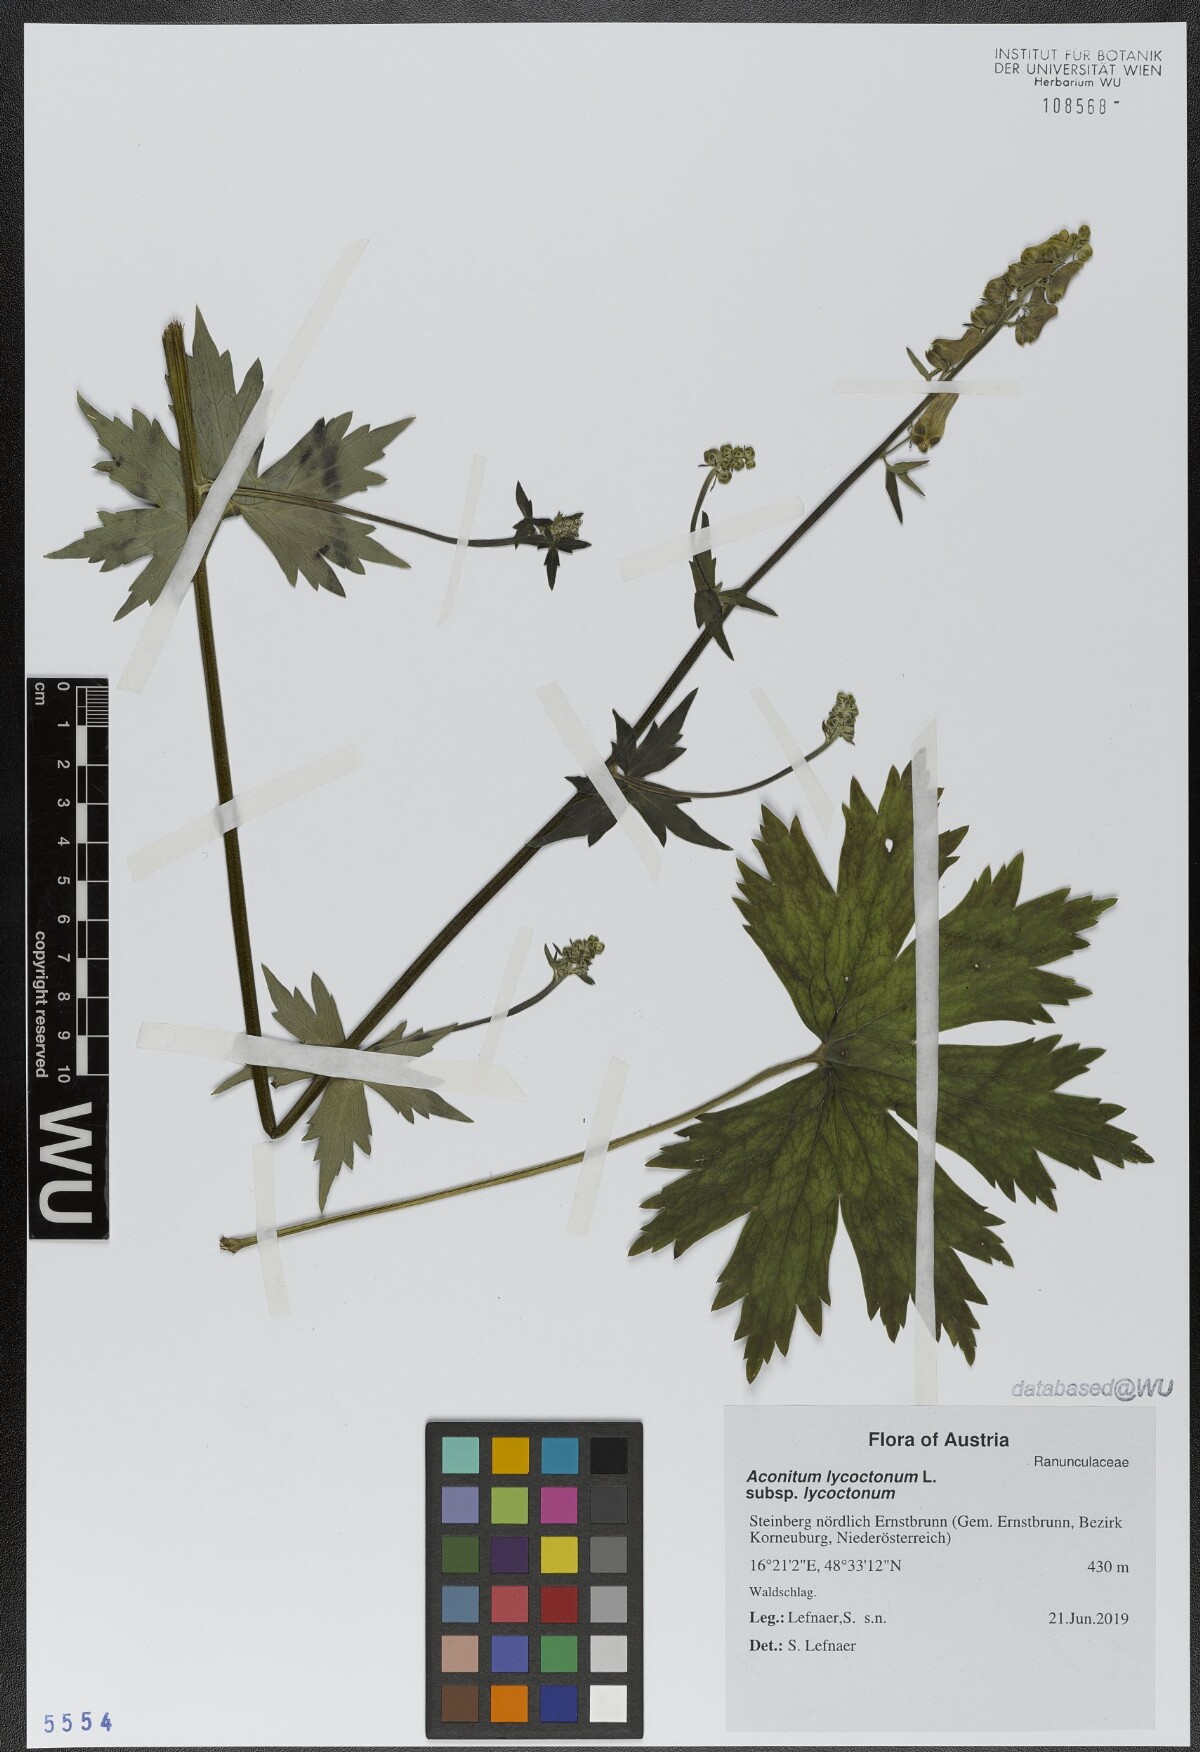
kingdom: Plantae
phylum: Tracheophyta
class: Magnoliopsida
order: Ranunculales
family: Ranunculaceae
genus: Aconitum
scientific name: Aconitum lycoctonum
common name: Wolf's-bane
